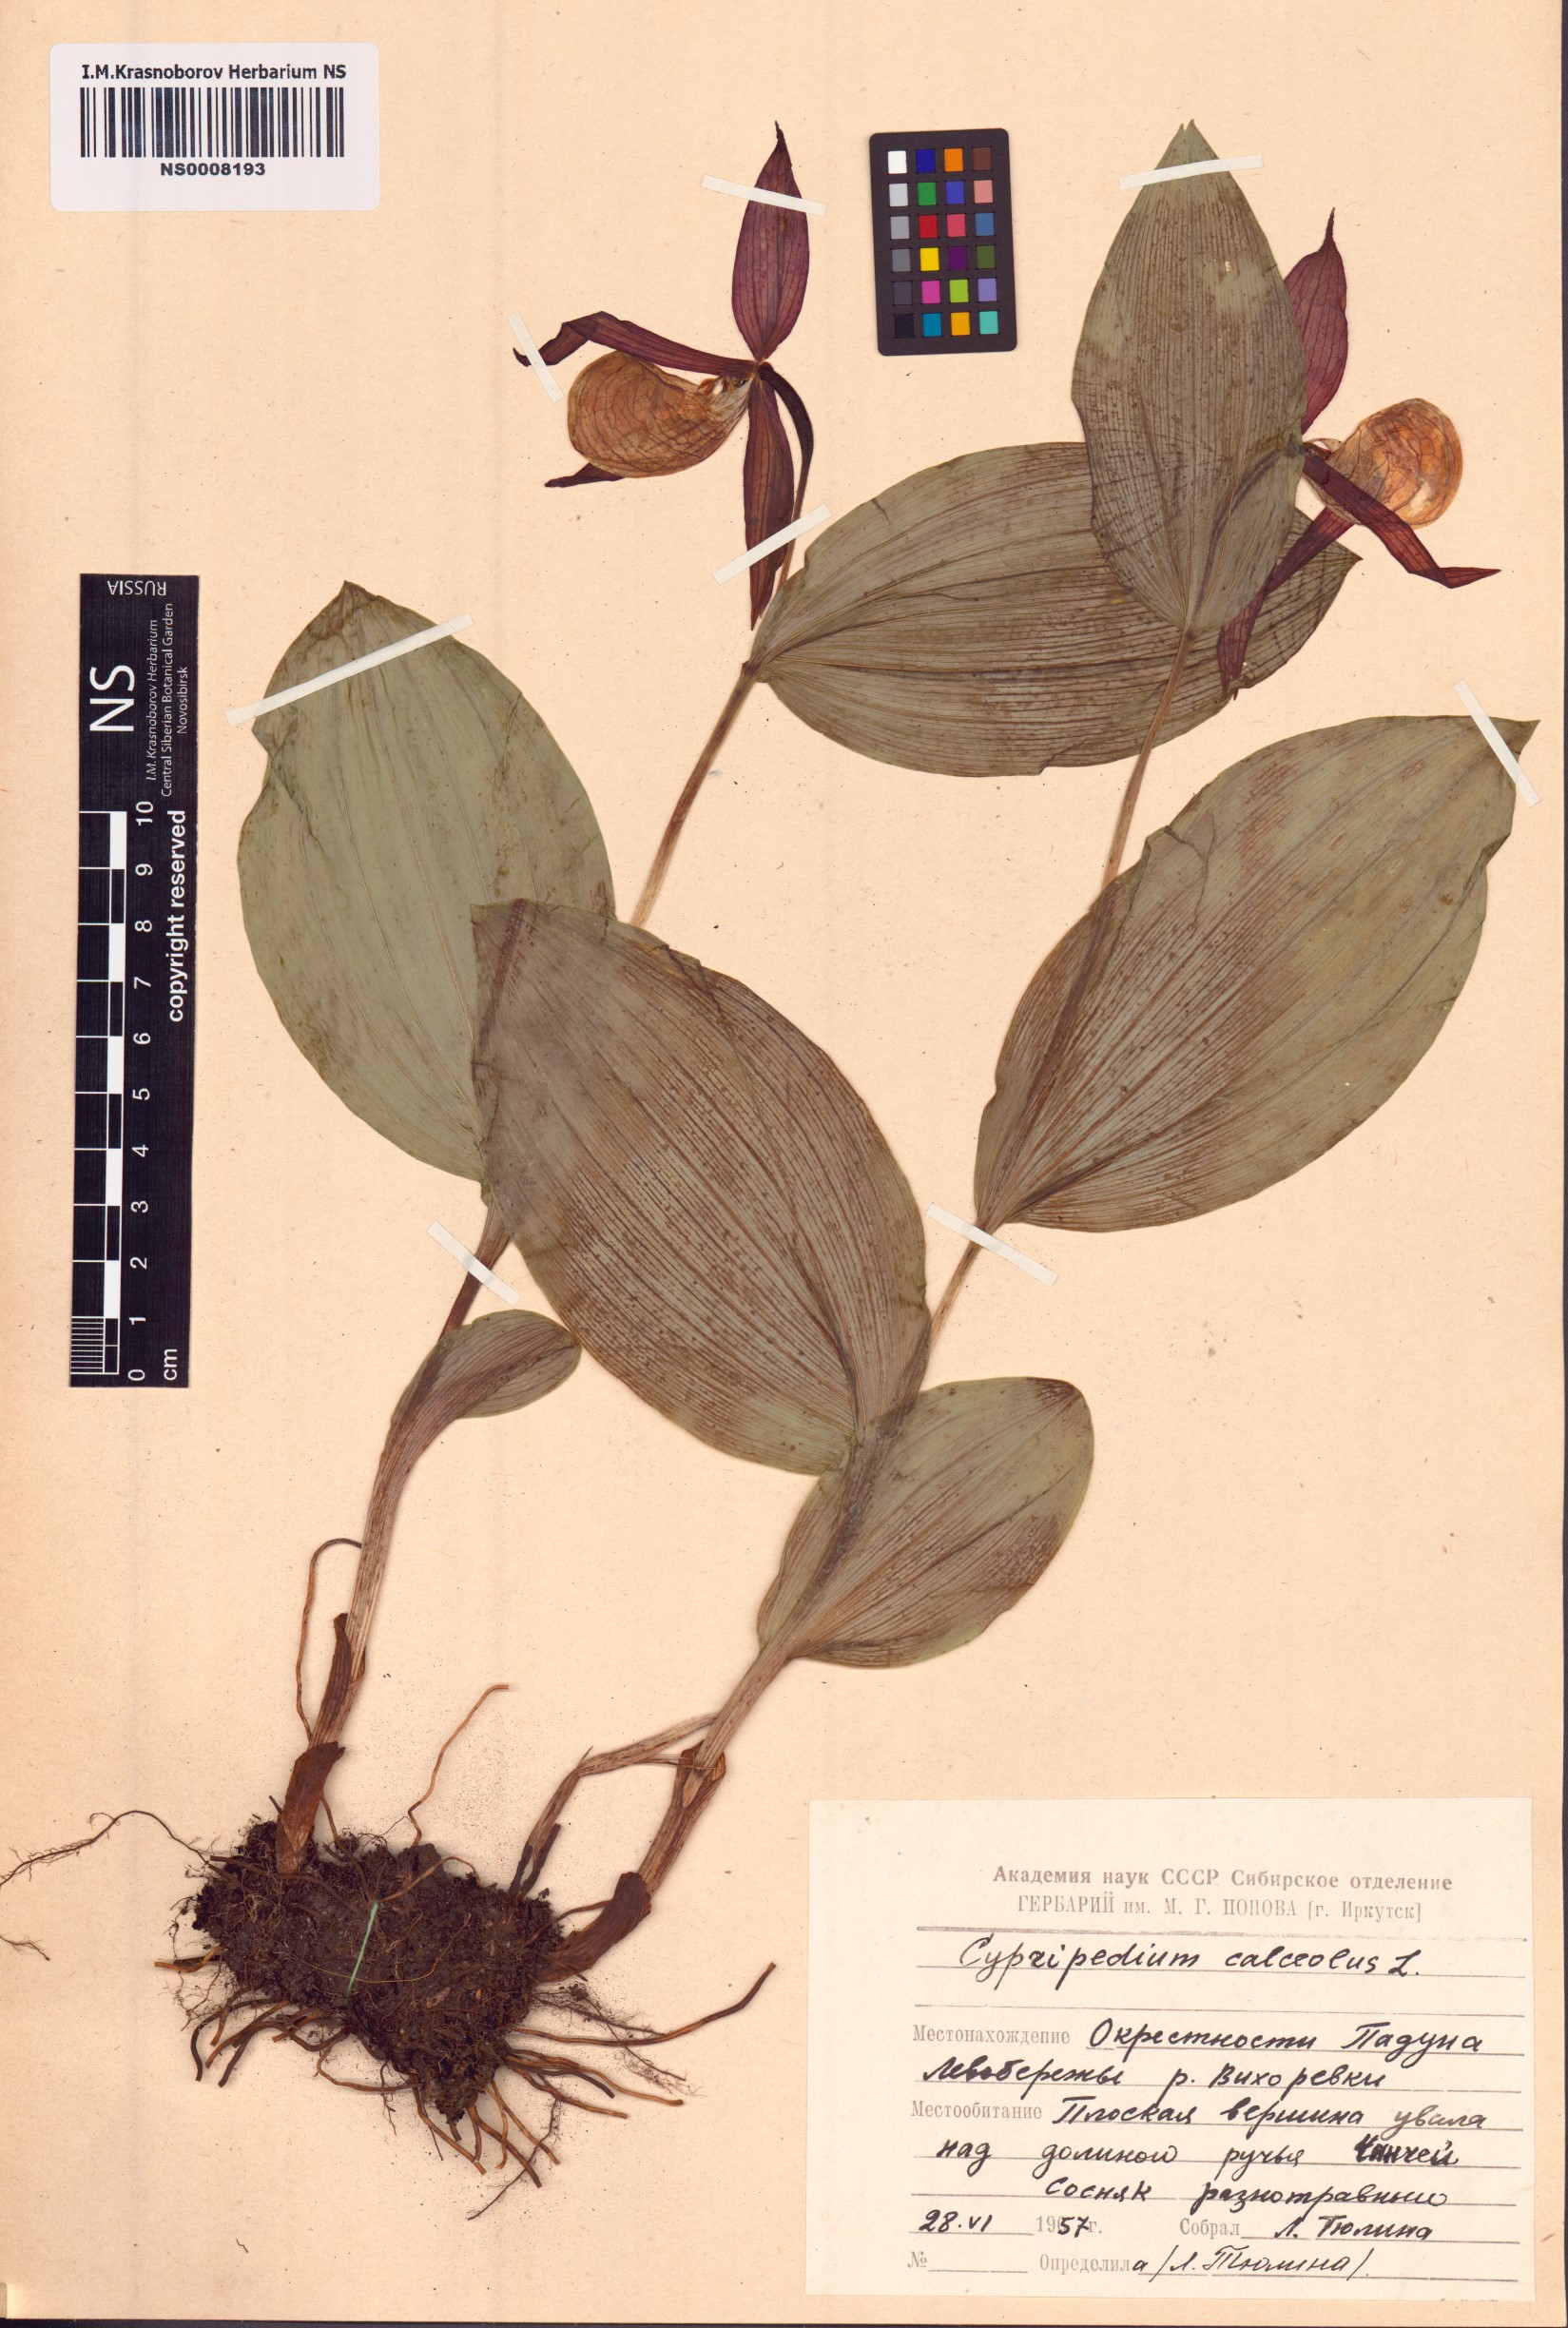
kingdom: Plantae
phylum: Tracheophyta
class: Liliopsida
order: Asparagales
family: Orchidaceae
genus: Cypripedium
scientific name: Cypripedium calceolus
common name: Lady's-slipper
